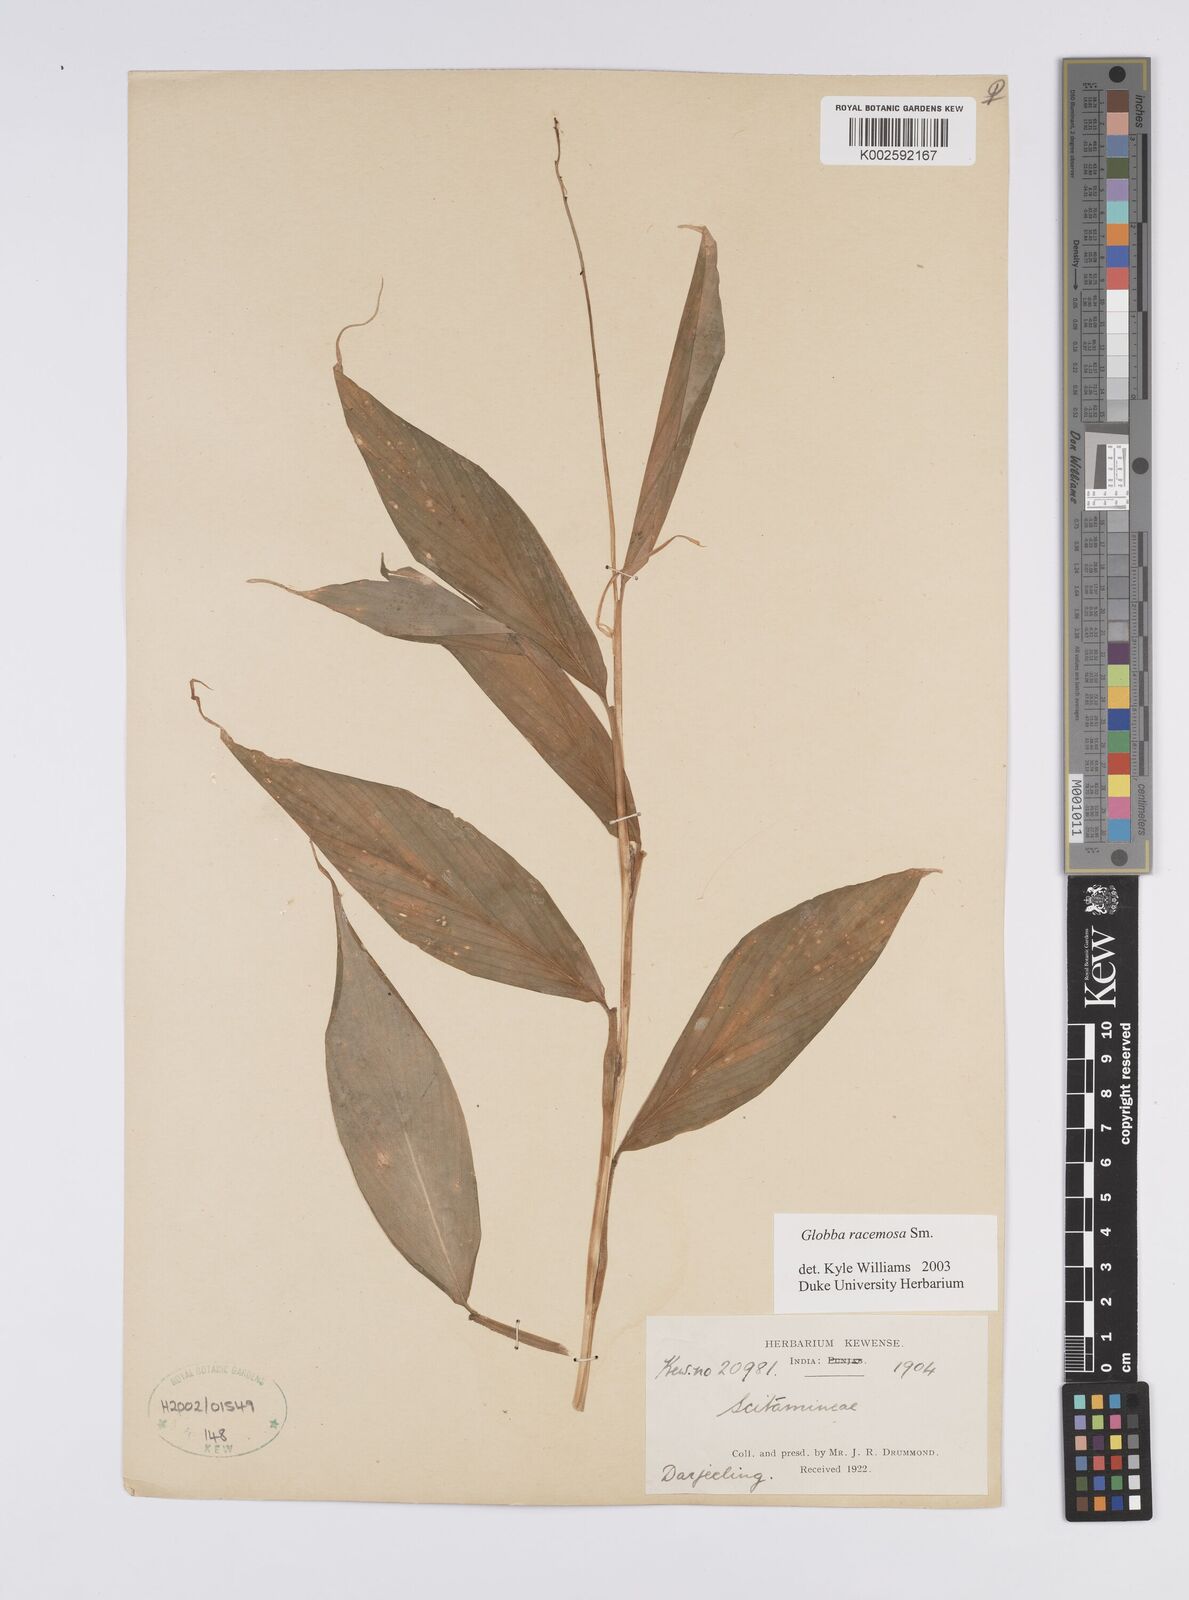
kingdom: Plantae
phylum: Tracheophyta
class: Liliopsida
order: Zingiberales
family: Zingiberaceae
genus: Globba
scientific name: Globba racemosa
